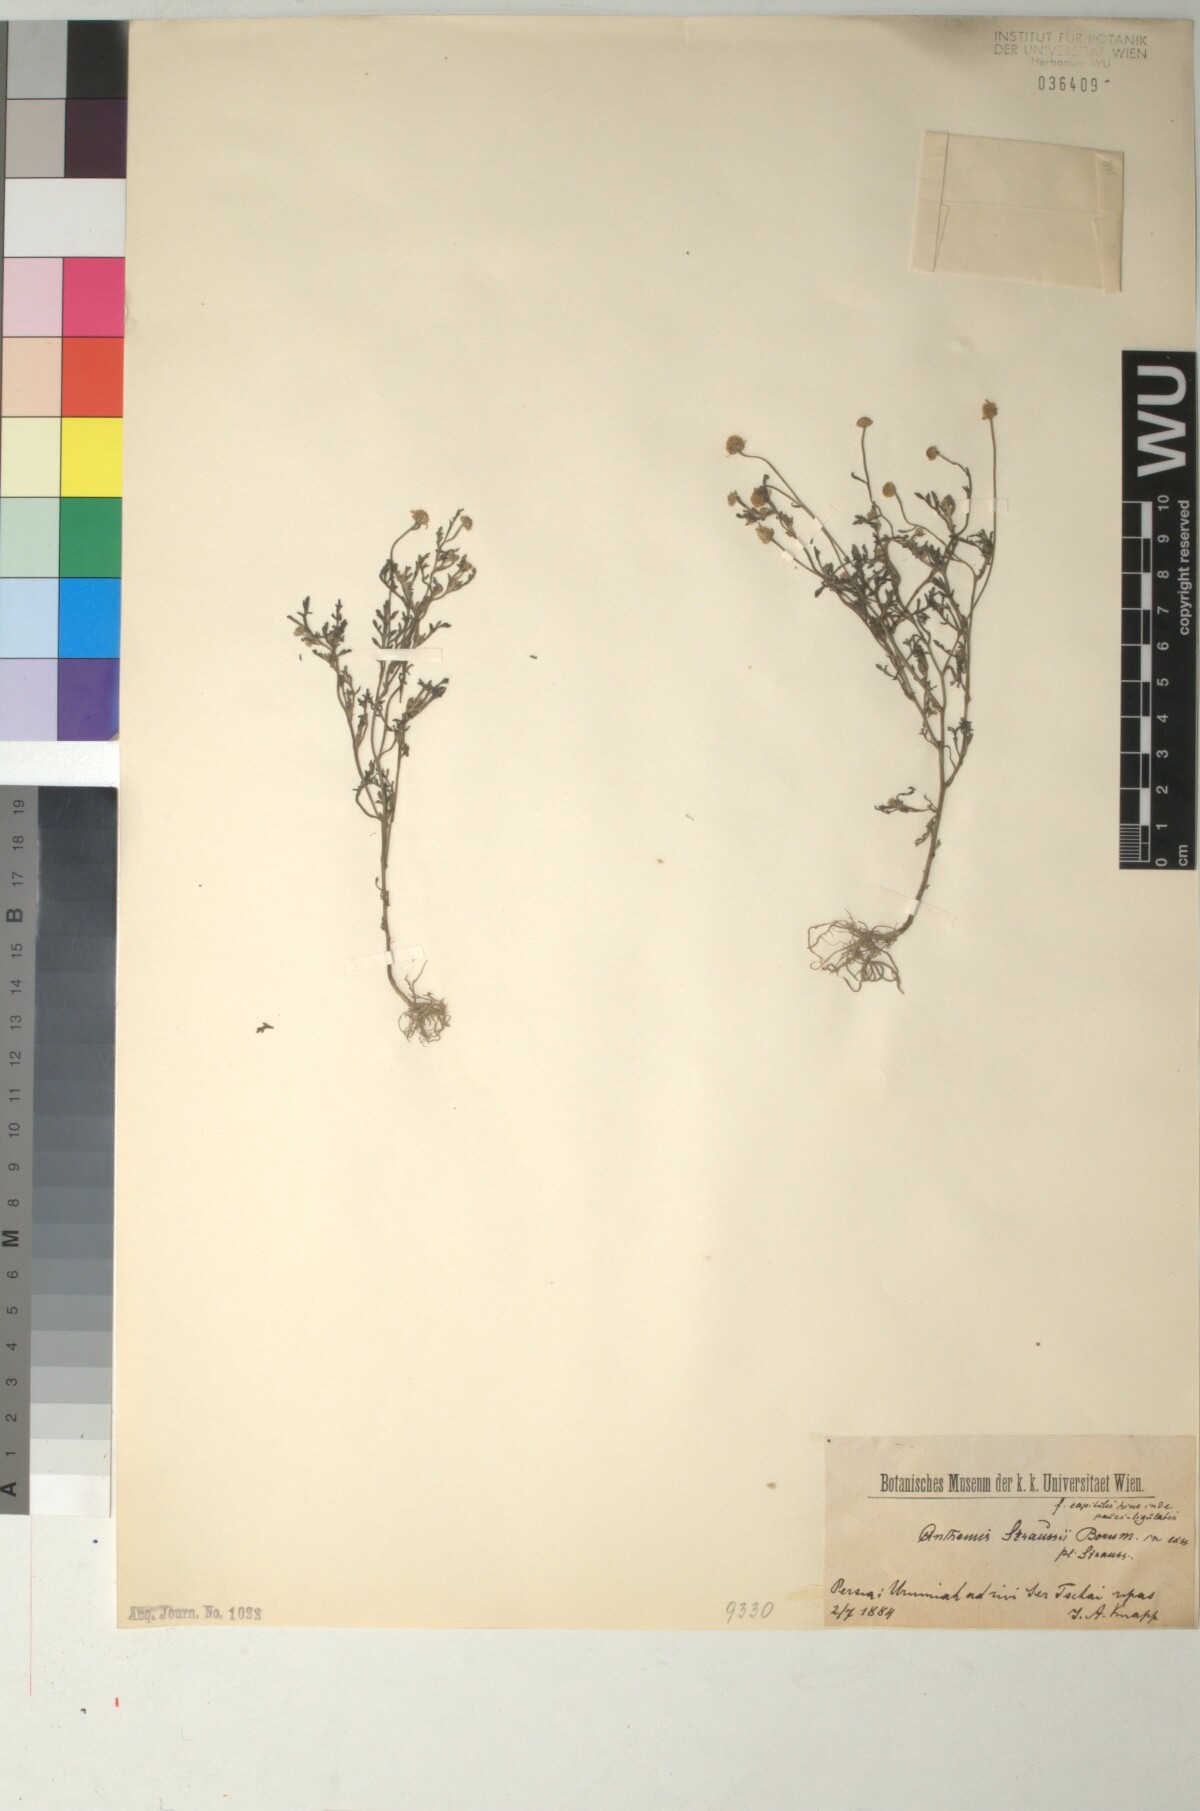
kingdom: Plantae
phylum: Tracheophyta
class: Magnoliopsida
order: Asterales
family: Asteraceae
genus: Anthemis
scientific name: Anthemis microcephala
